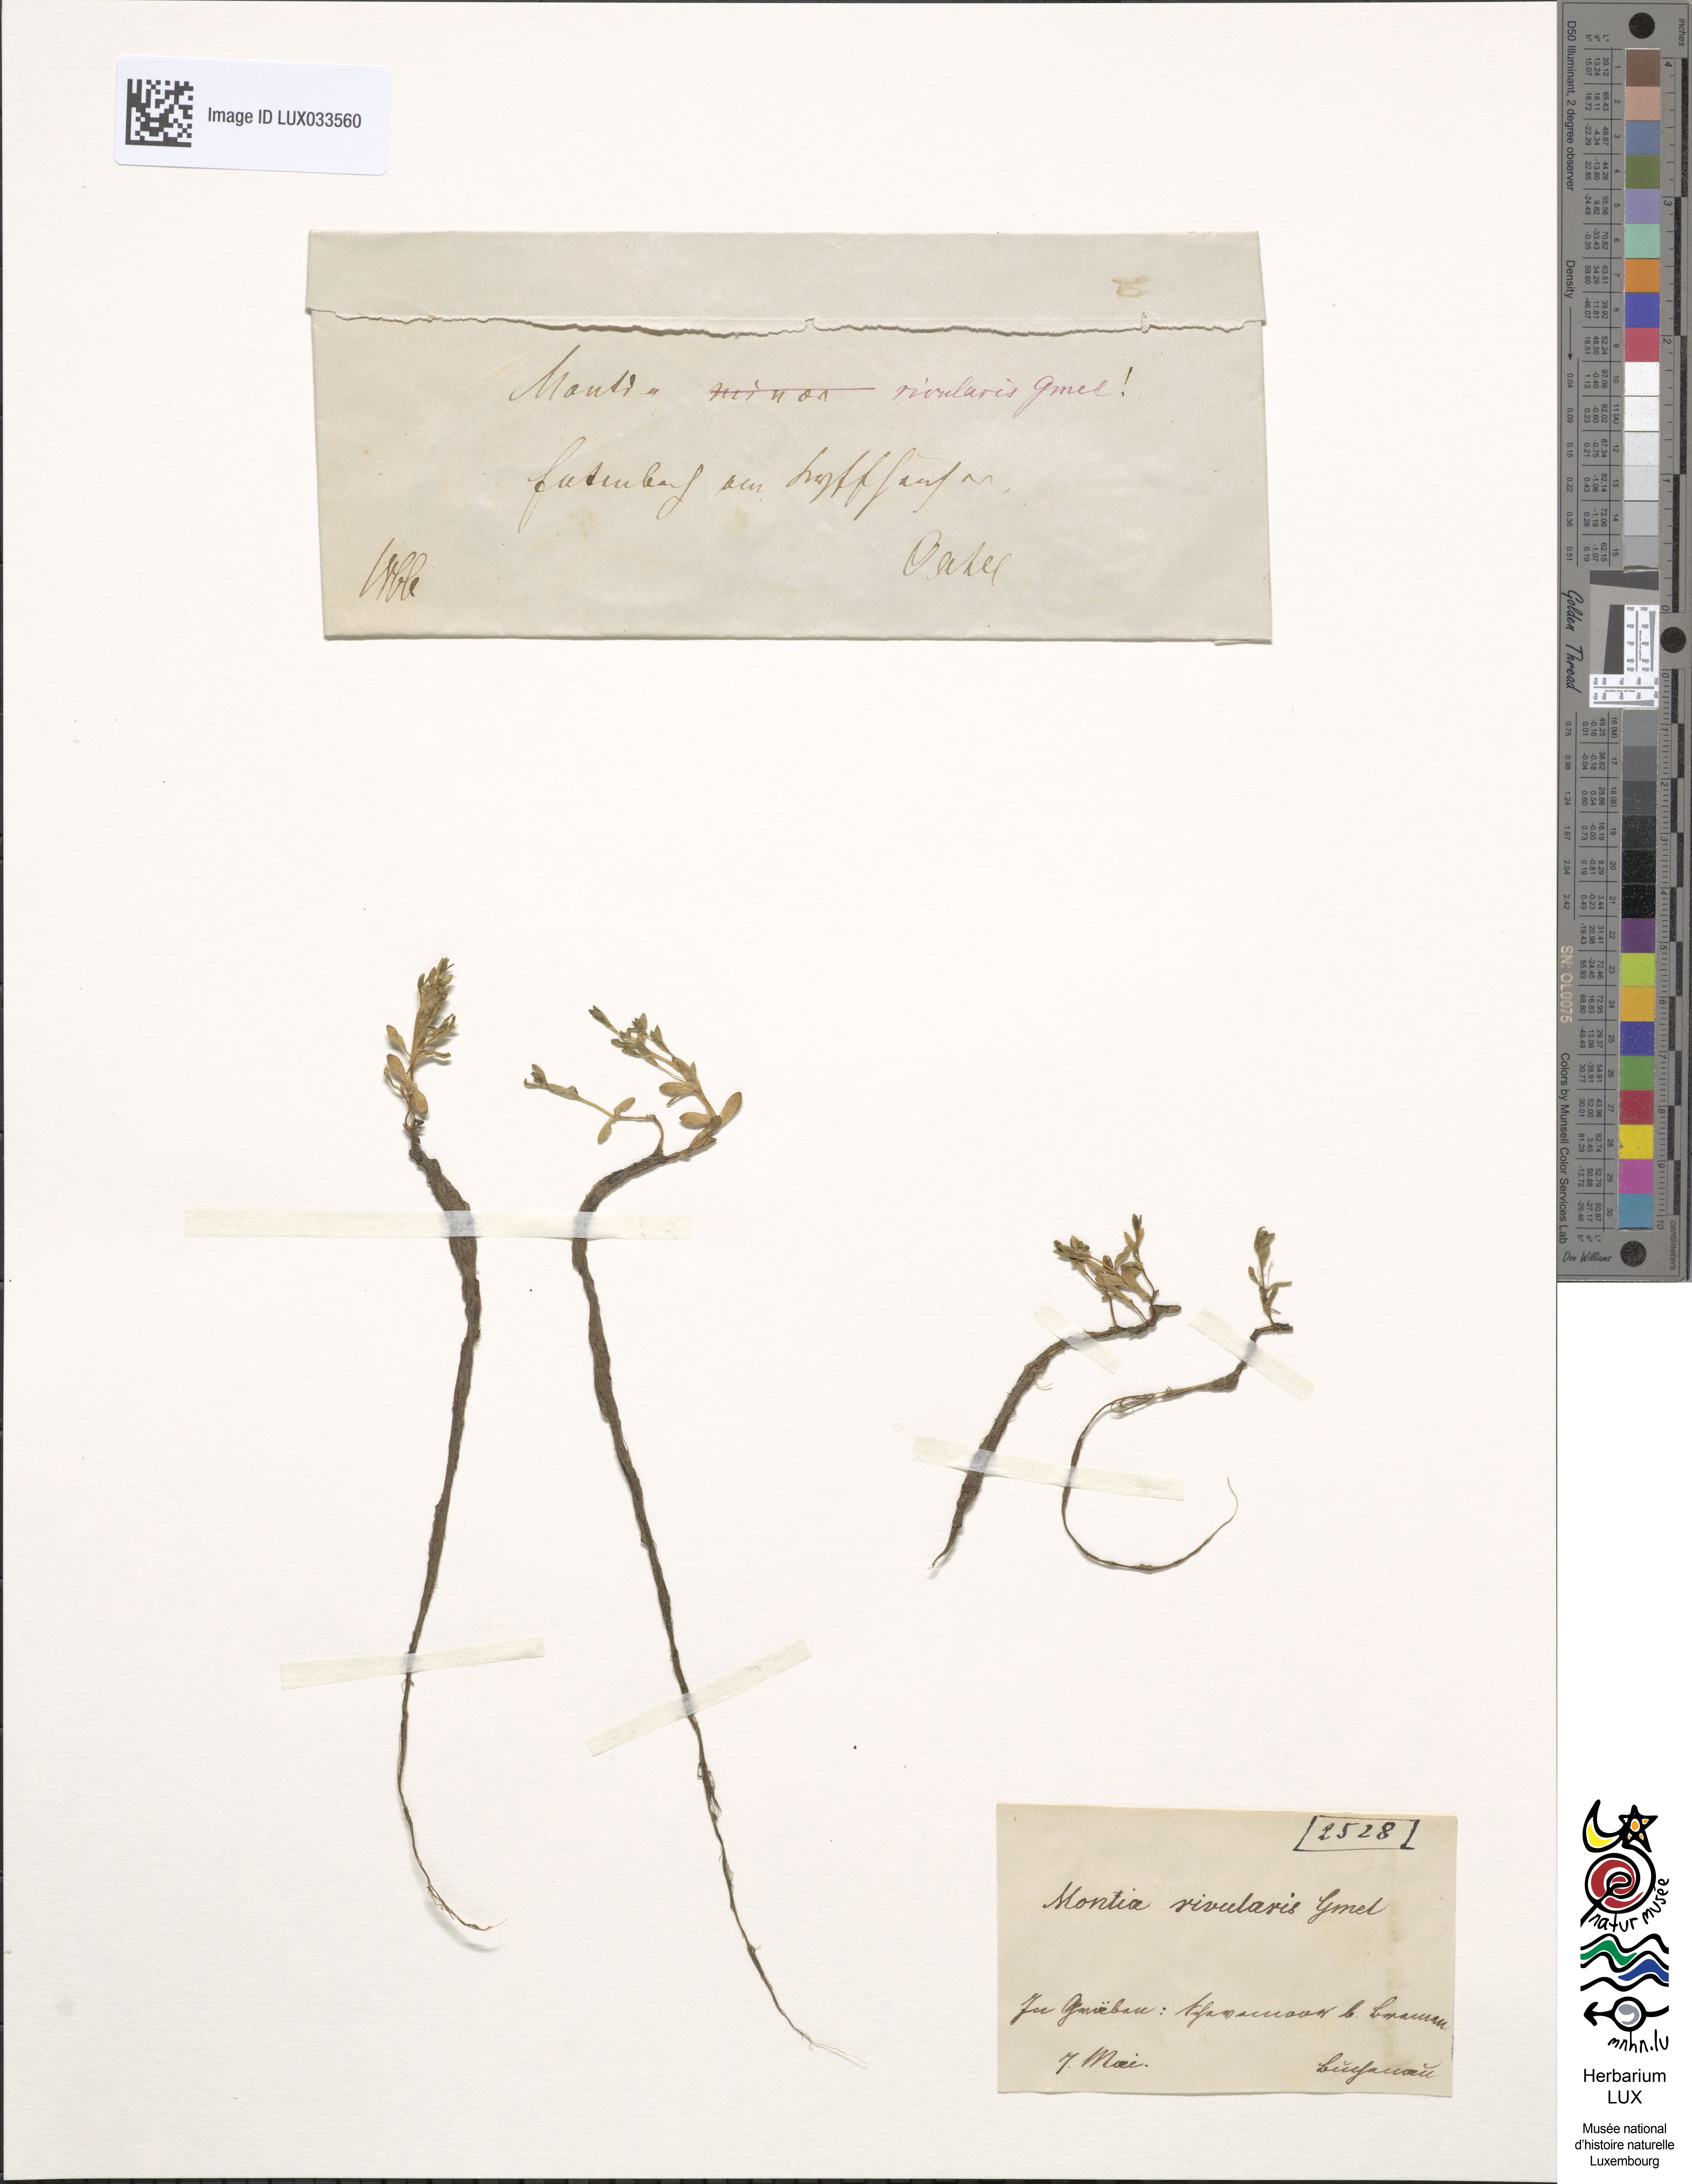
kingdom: Plantae
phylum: Tracheophyta
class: Magnoliopsida
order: Caryophyllales
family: Montiaceae
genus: Montia
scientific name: Montia fontana
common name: Blinks
